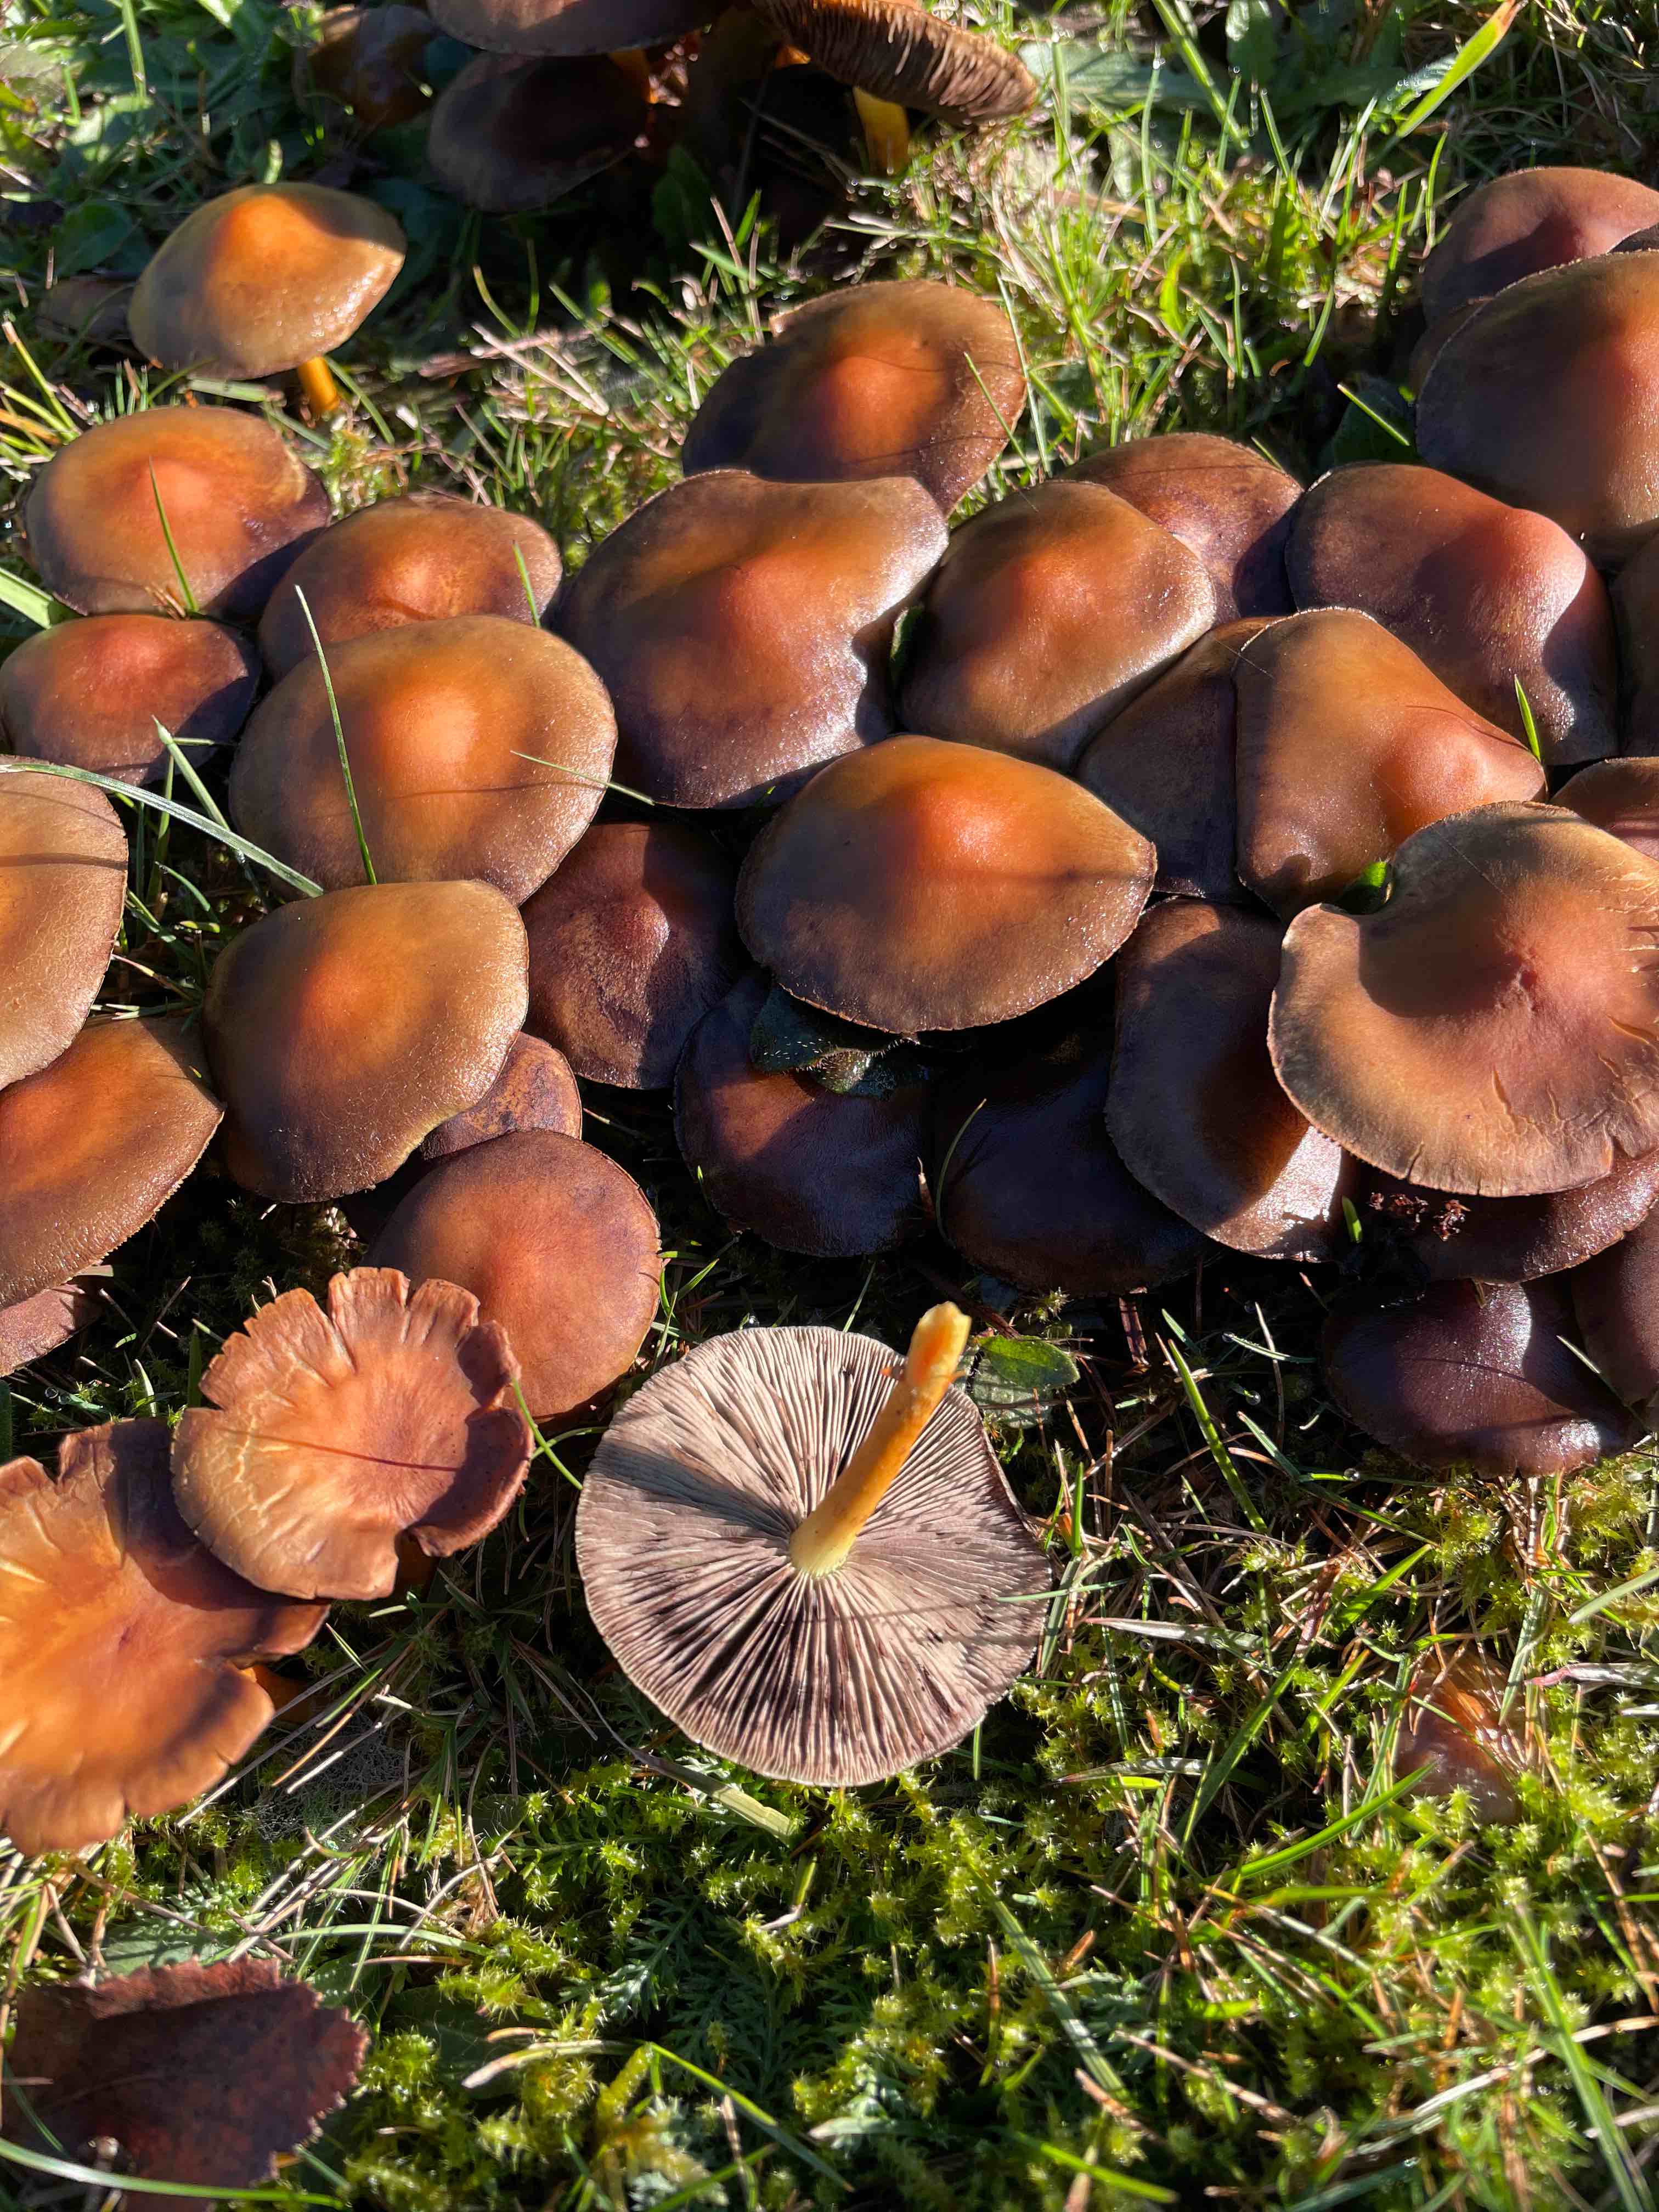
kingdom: Fungi
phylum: Basidiomycota
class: Agaricomycetes
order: Agaricales
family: Strophariaceae
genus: Hypholoma
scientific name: Hypholoma fasciculare
